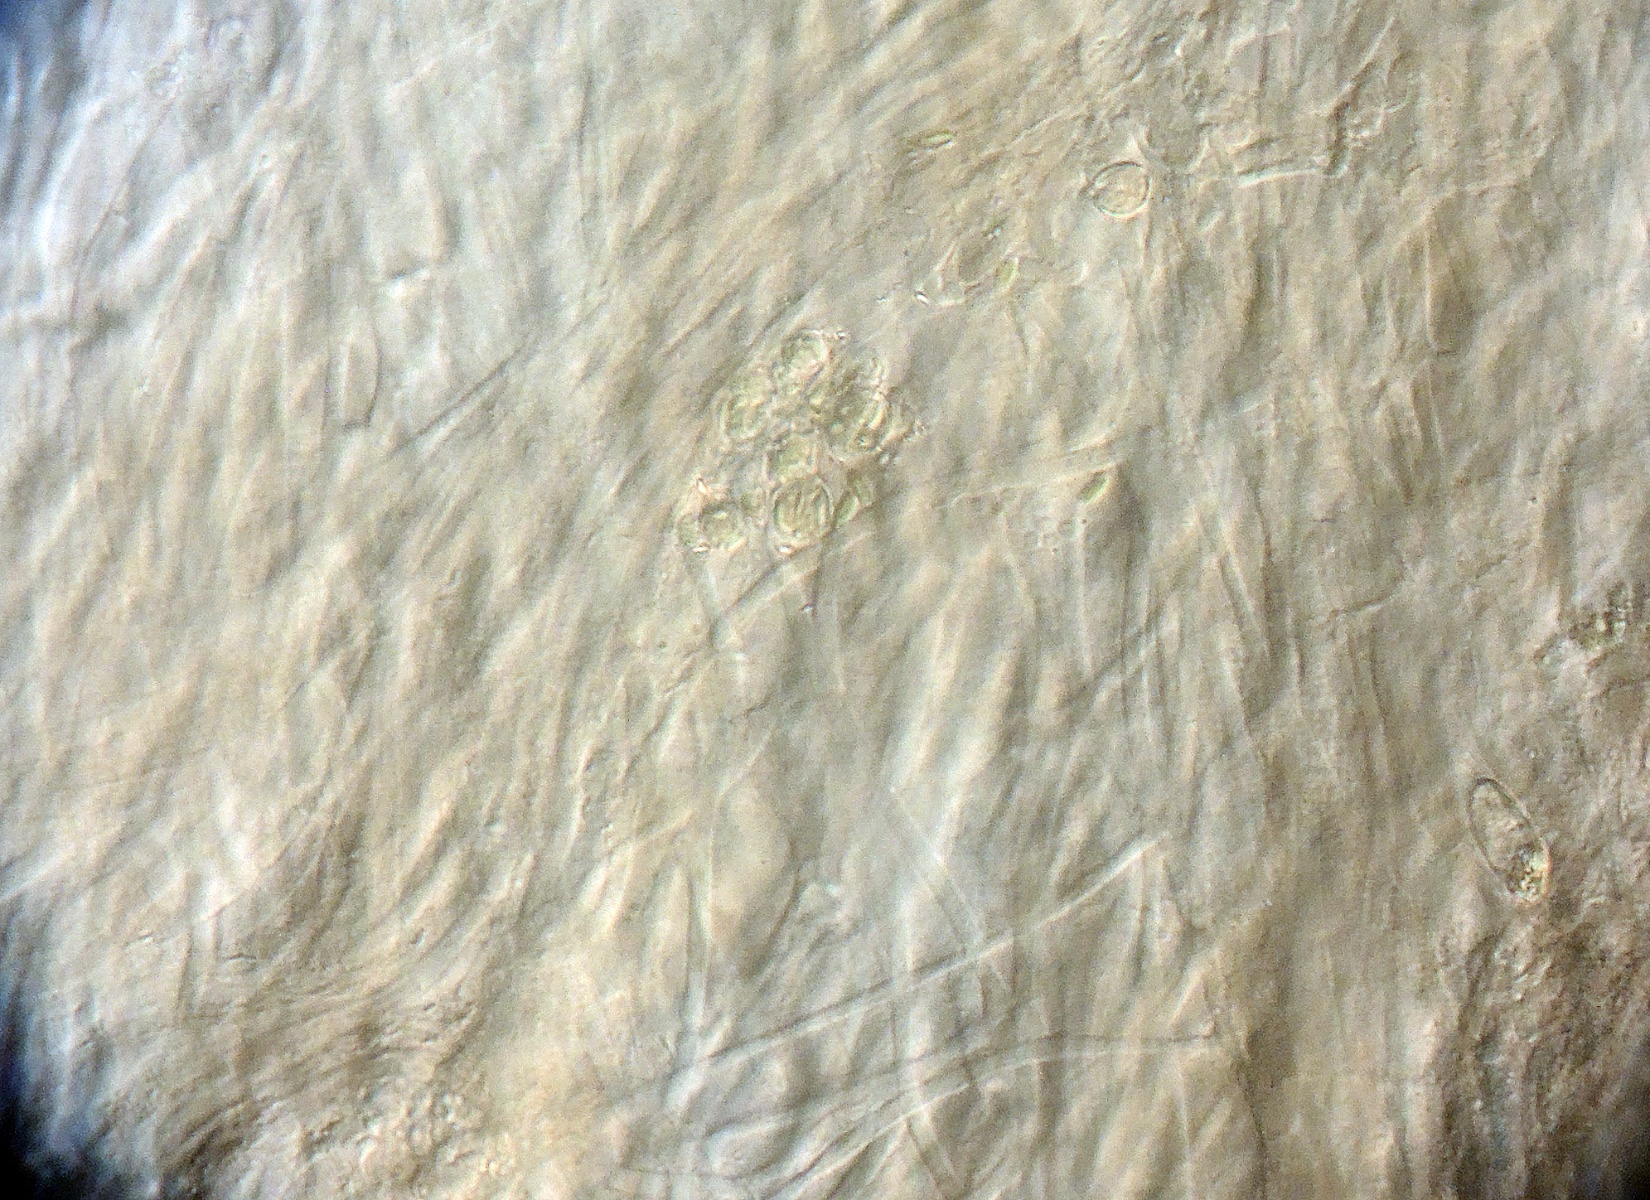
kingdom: Fungi
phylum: Ascomycota
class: Leotiomycetes
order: Helotiales
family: Rutstroemiaceae
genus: Rutstroemia
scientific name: Rutstroemia alni
